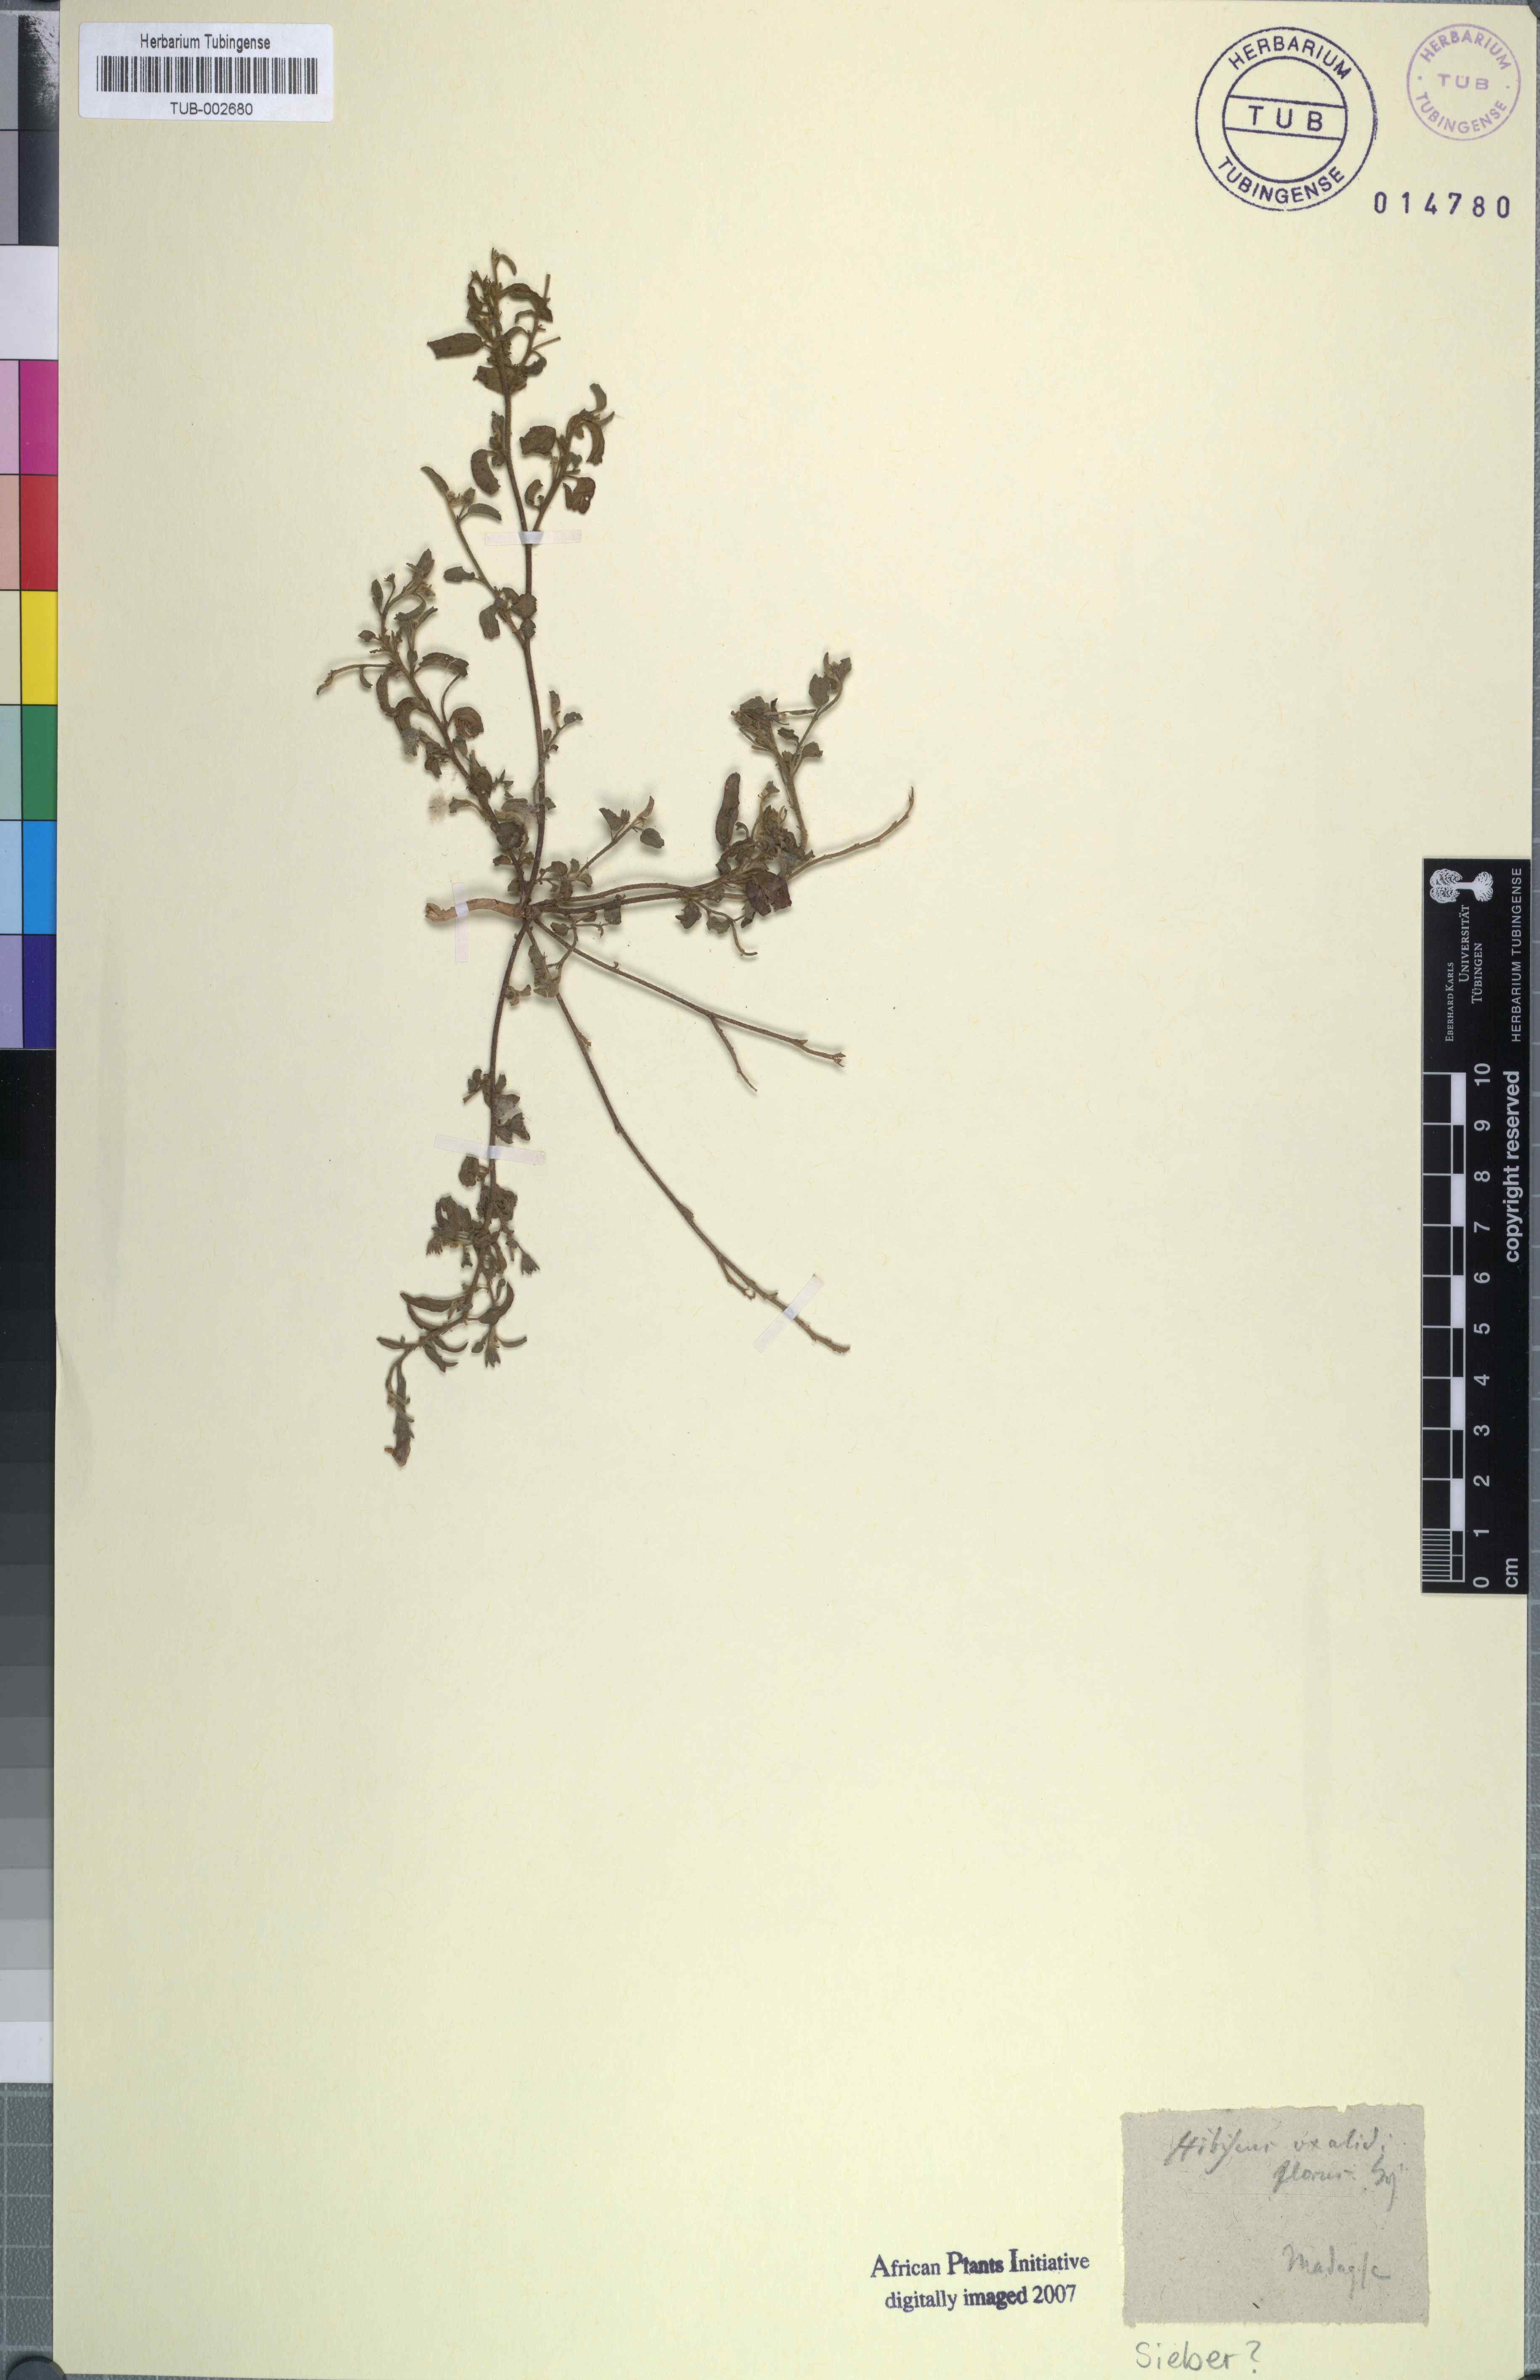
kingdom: Plantae
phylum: Tracheophyta
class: Magnoliopsida
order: Malvales
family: Malvaceae
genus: Hibiscus
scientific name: Hibiscus oxaliflorus
